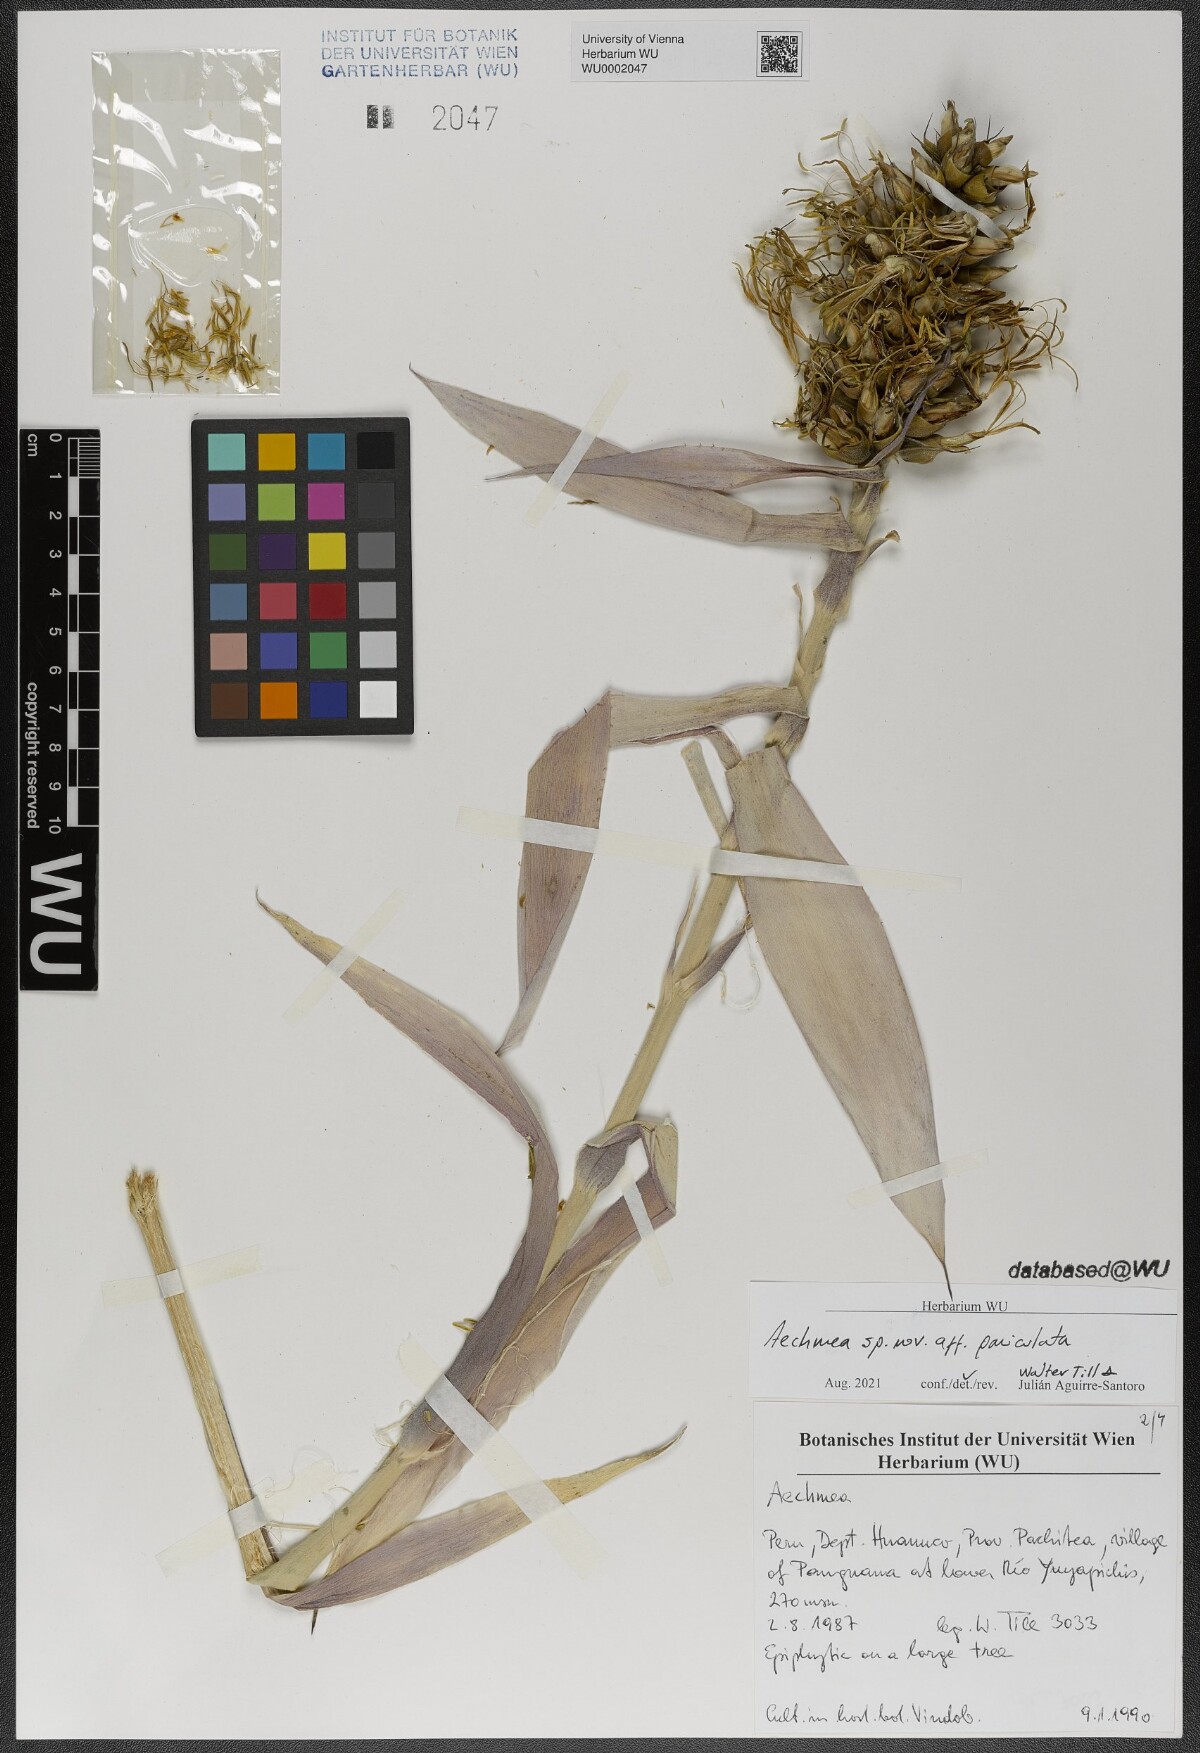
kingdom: Plantae
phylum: Tracheophyta
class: Liliopsida
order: Poales
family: Bromeliaceae
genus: Aechmea
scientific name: Aechmea
